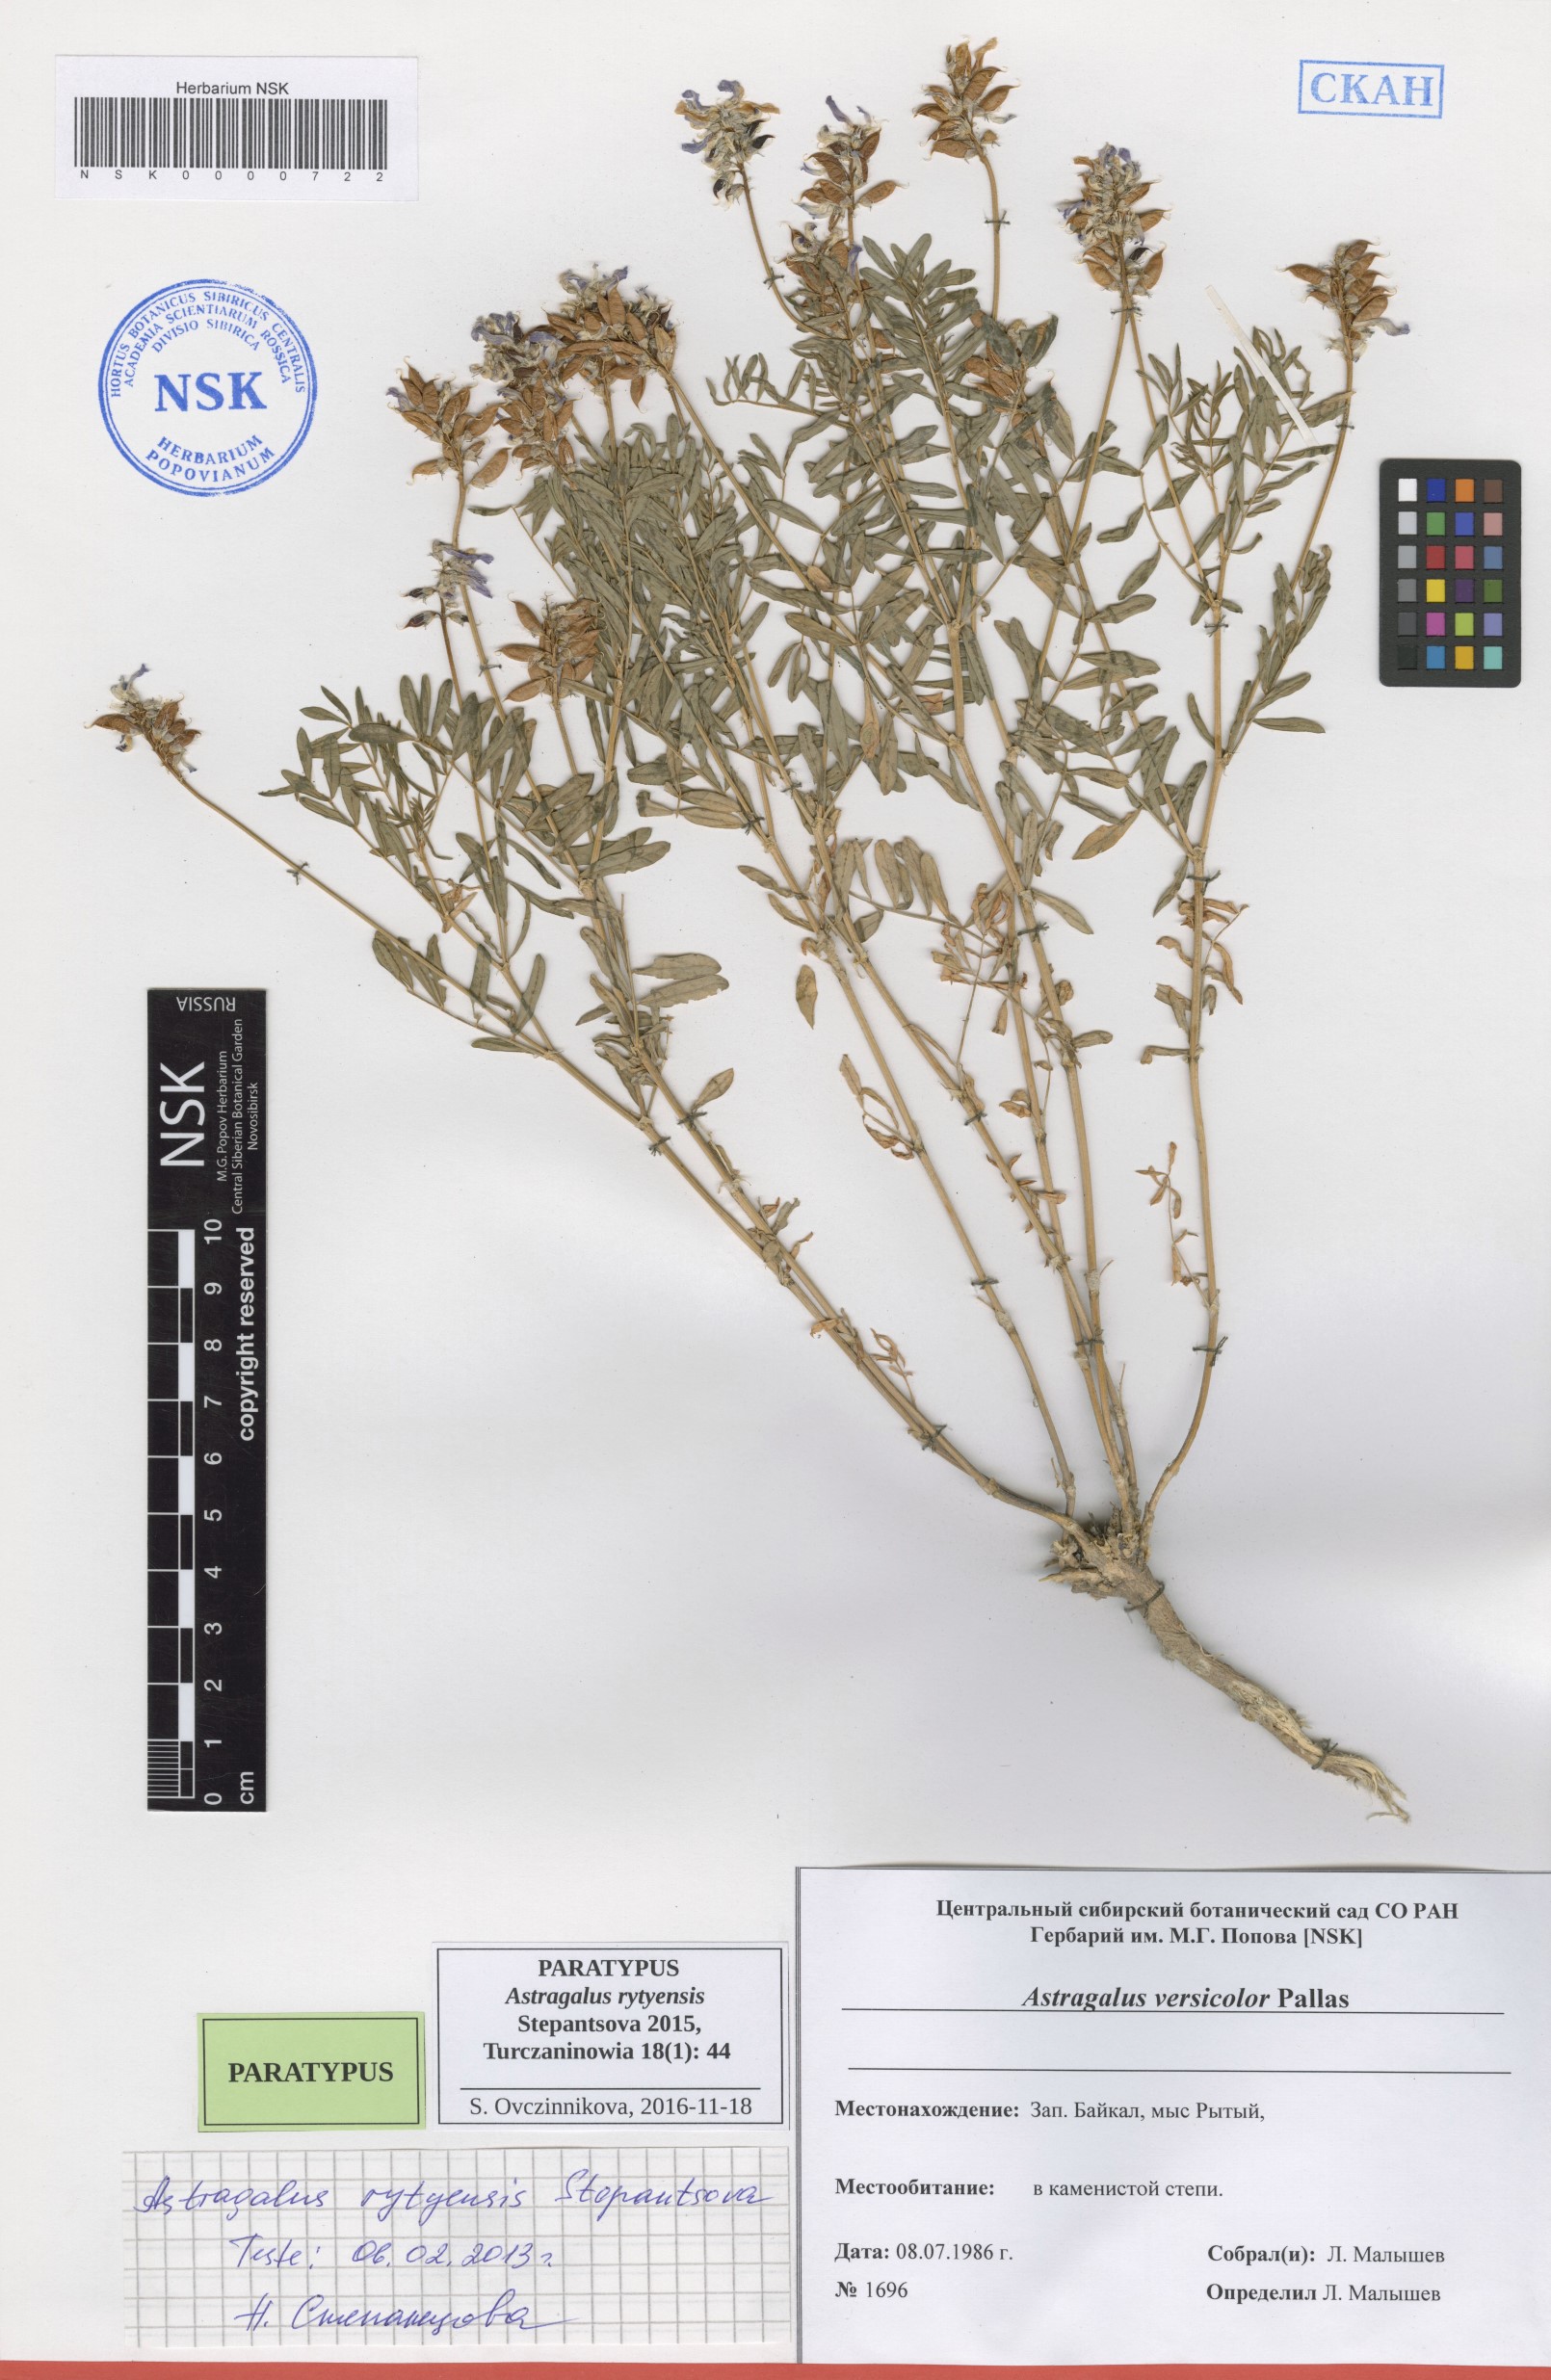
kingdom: Plantae
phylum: Tracheophyta
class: Magnoliopsida
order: Fabales
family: Fabaceae
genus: Astragalus
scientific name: Astragalus rytyensis
